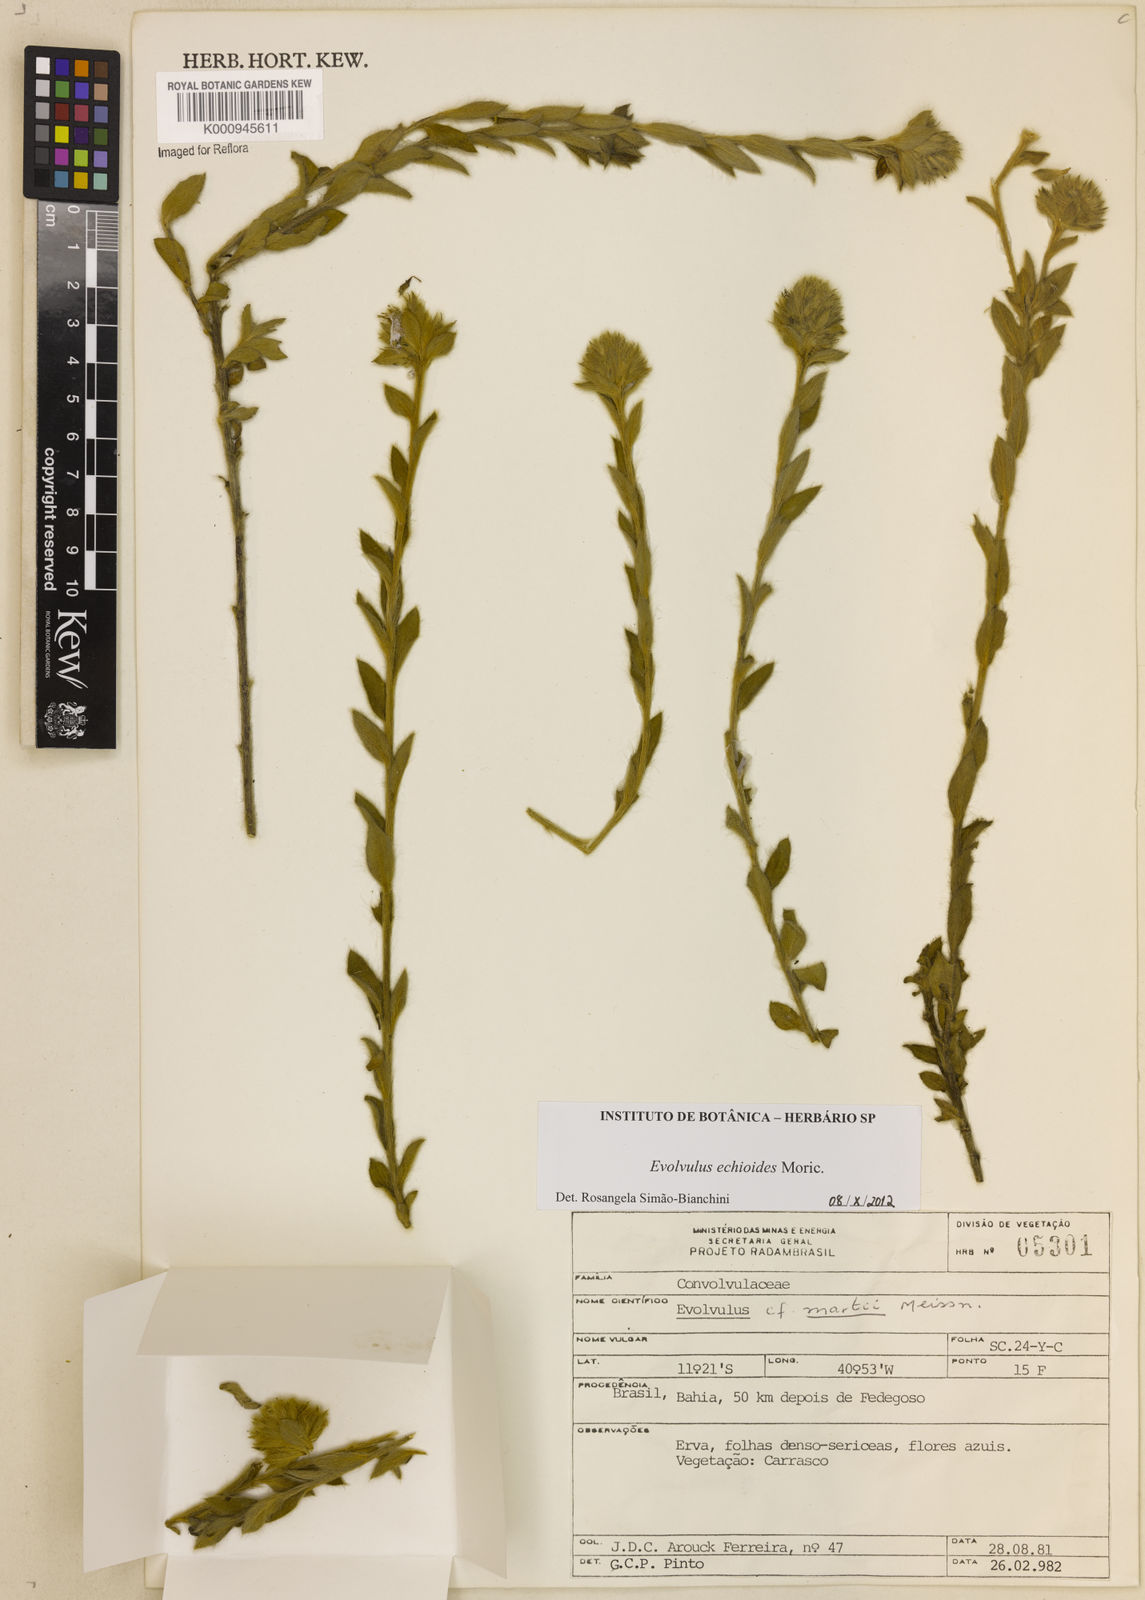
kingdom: Plantae
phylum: Tracheophyta
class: Magnoliopsida
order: Solanales
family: Convolvulaceae
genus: Evolvulus
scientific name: Evolvulus echioides
